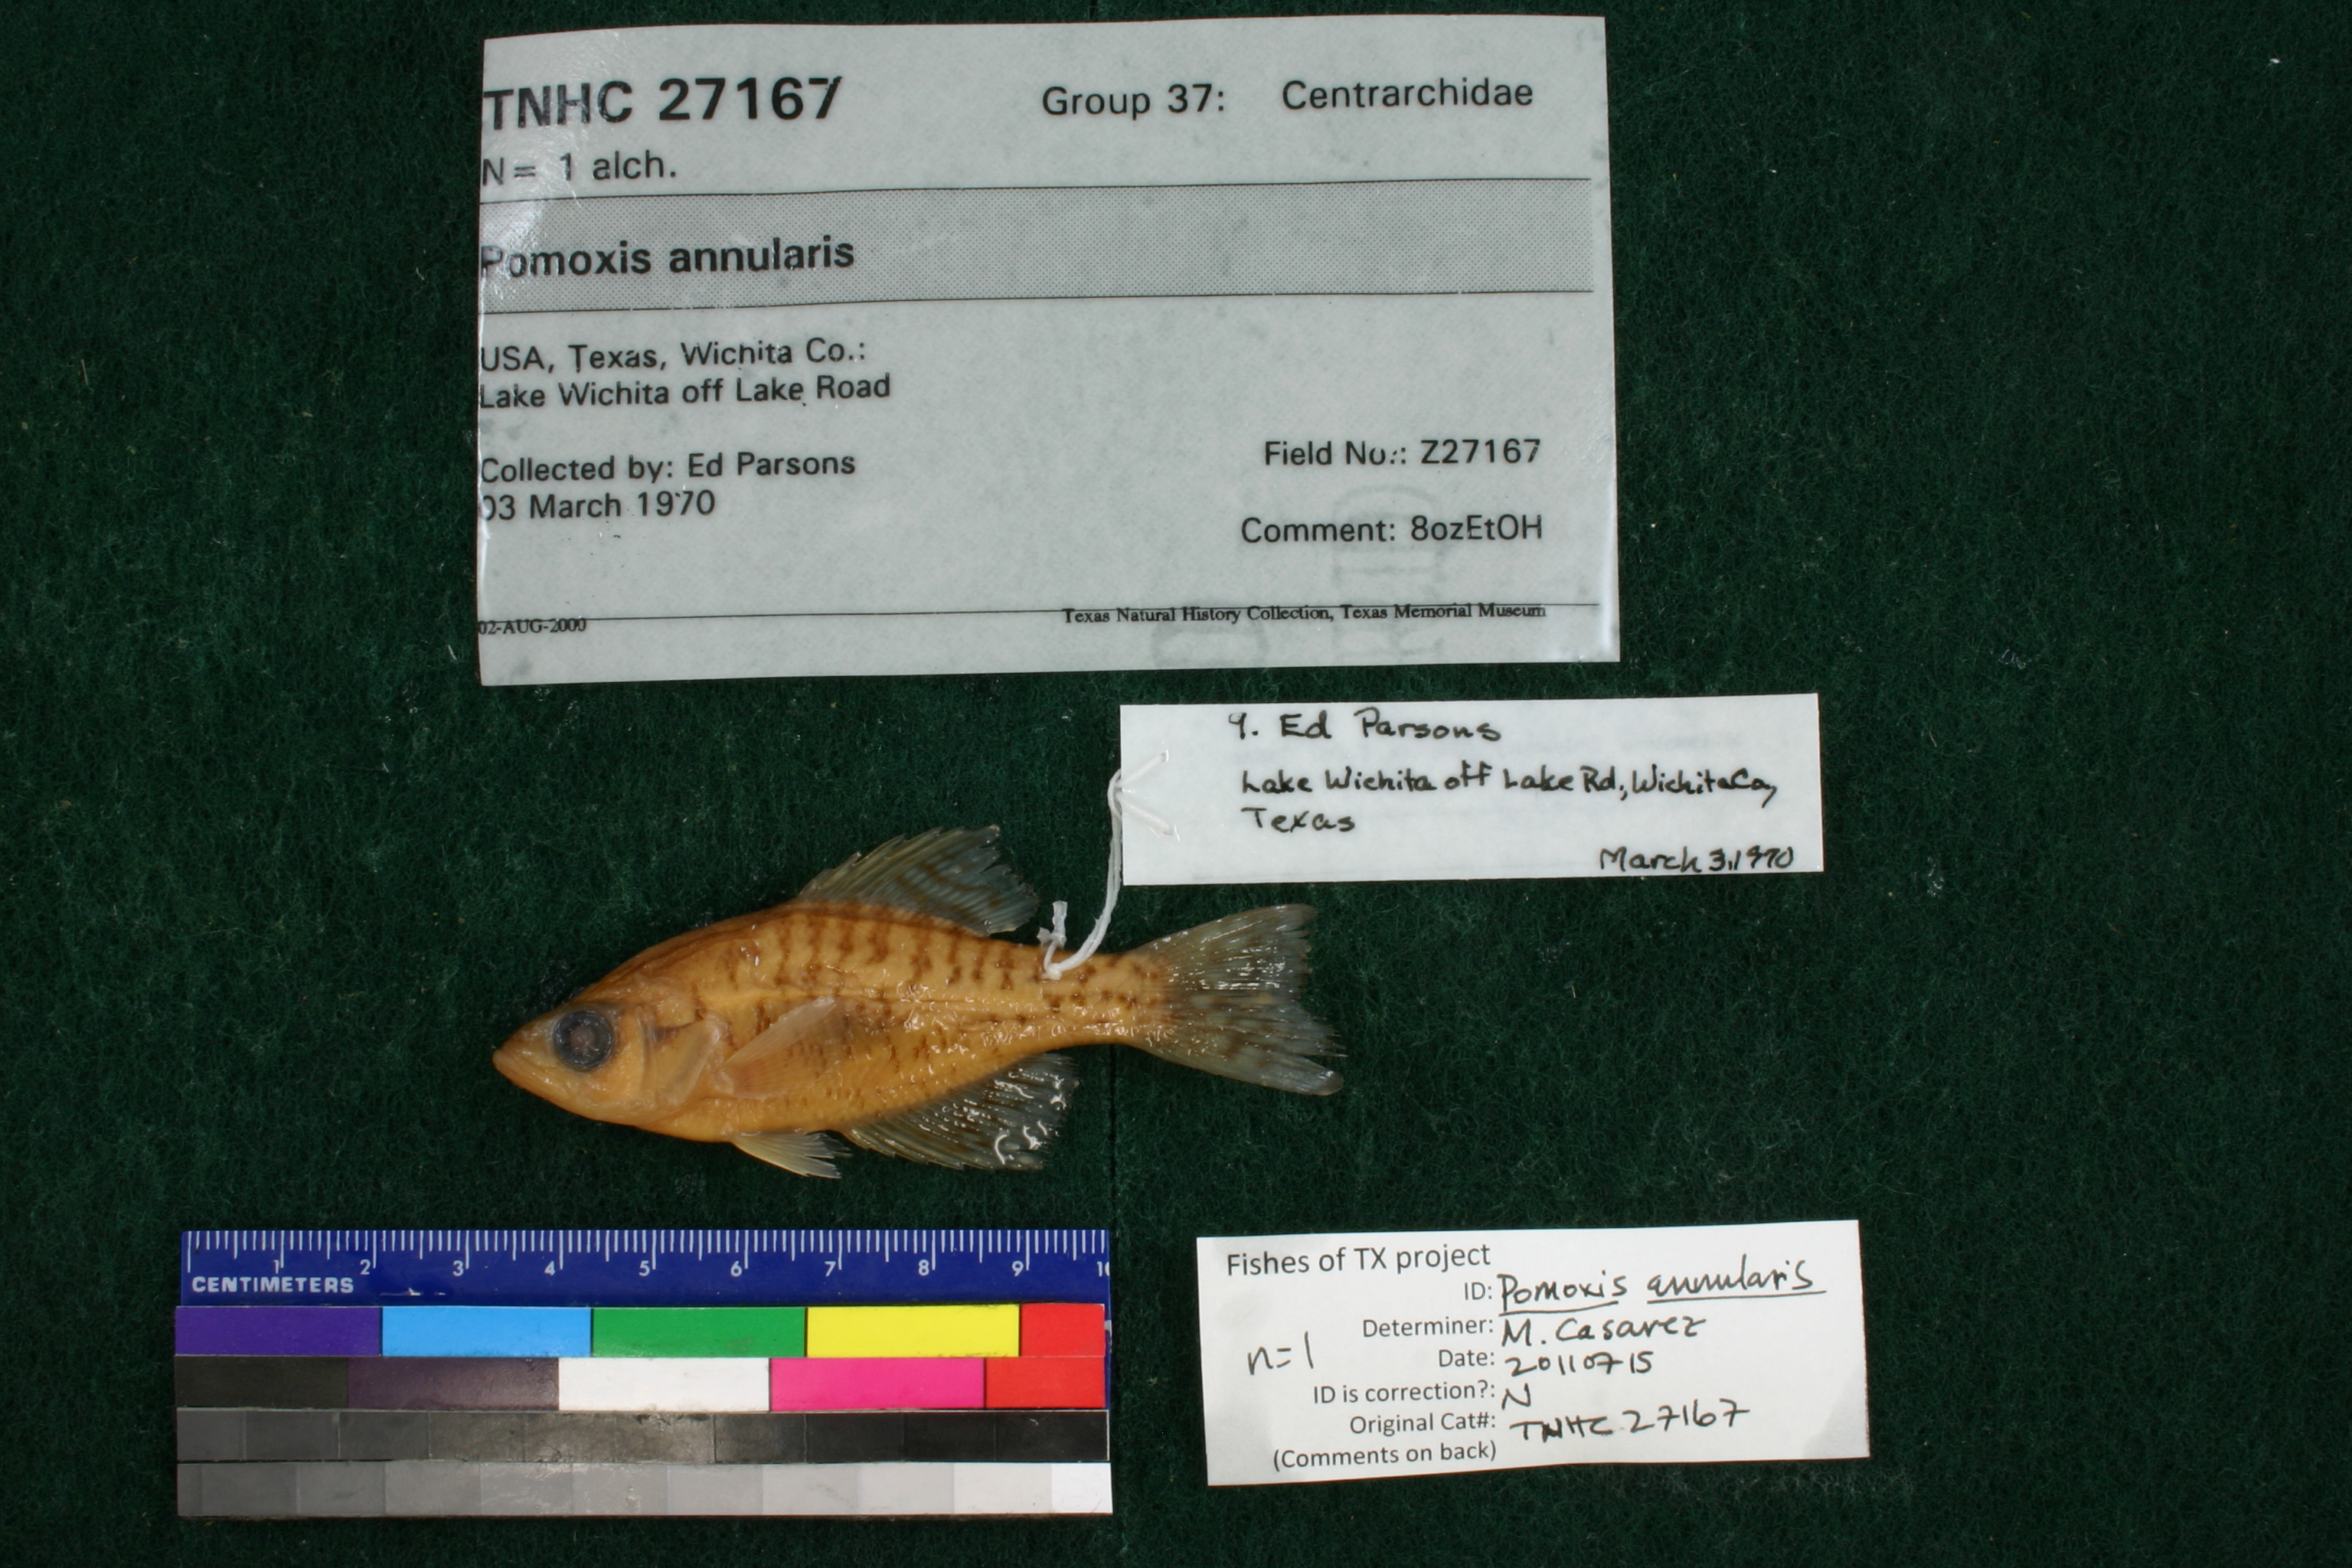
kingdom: Animalia
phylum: Chordata
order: Perciformes
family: Centrarchidae
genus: Pomoxis
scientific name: Pomoxis annularis
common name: White crappie
